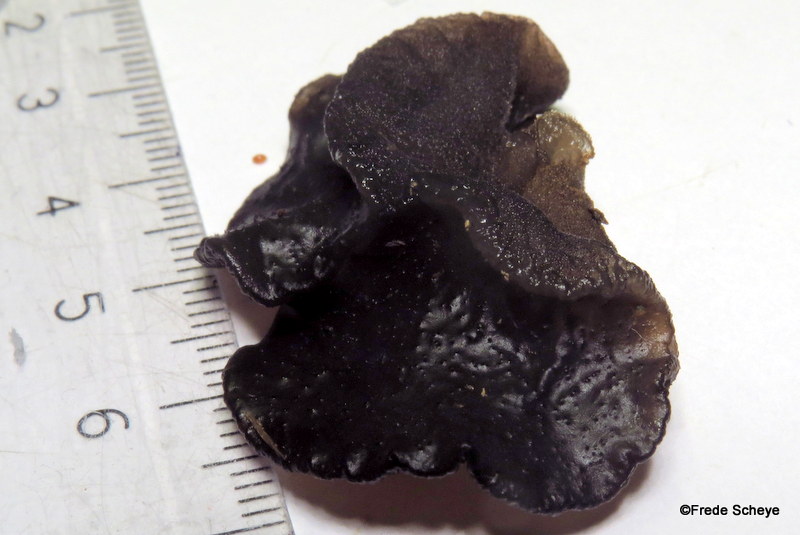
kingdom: Fungi
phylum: Basidiomycota
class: Agaricomycetes
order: Auriculariales
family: Auriculariaceae
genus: Exidia
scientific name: Exidia glandulosa
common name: ege-bævretop
